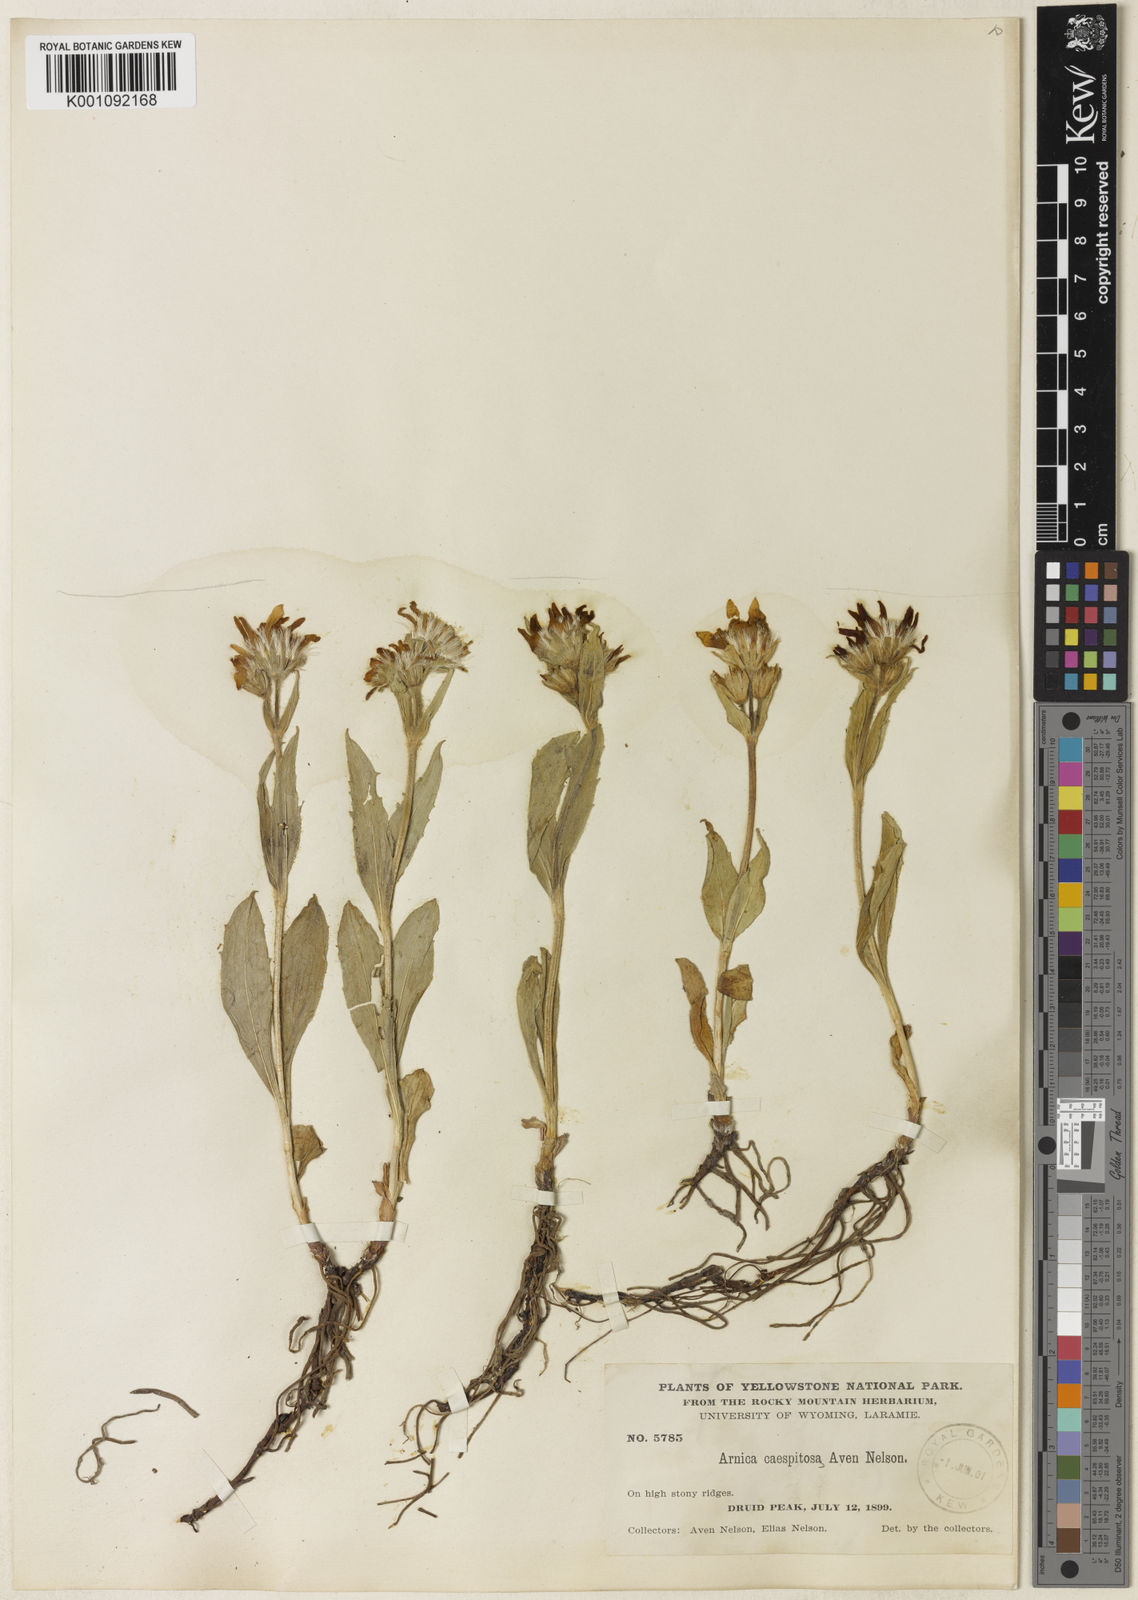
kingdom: Plantae
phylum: Tracheophyta
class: Magnoliopsida
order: Asterales
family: Asteraceae
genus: Arnica
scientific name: Arnica rydbergii
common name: Rydberg's arnica
